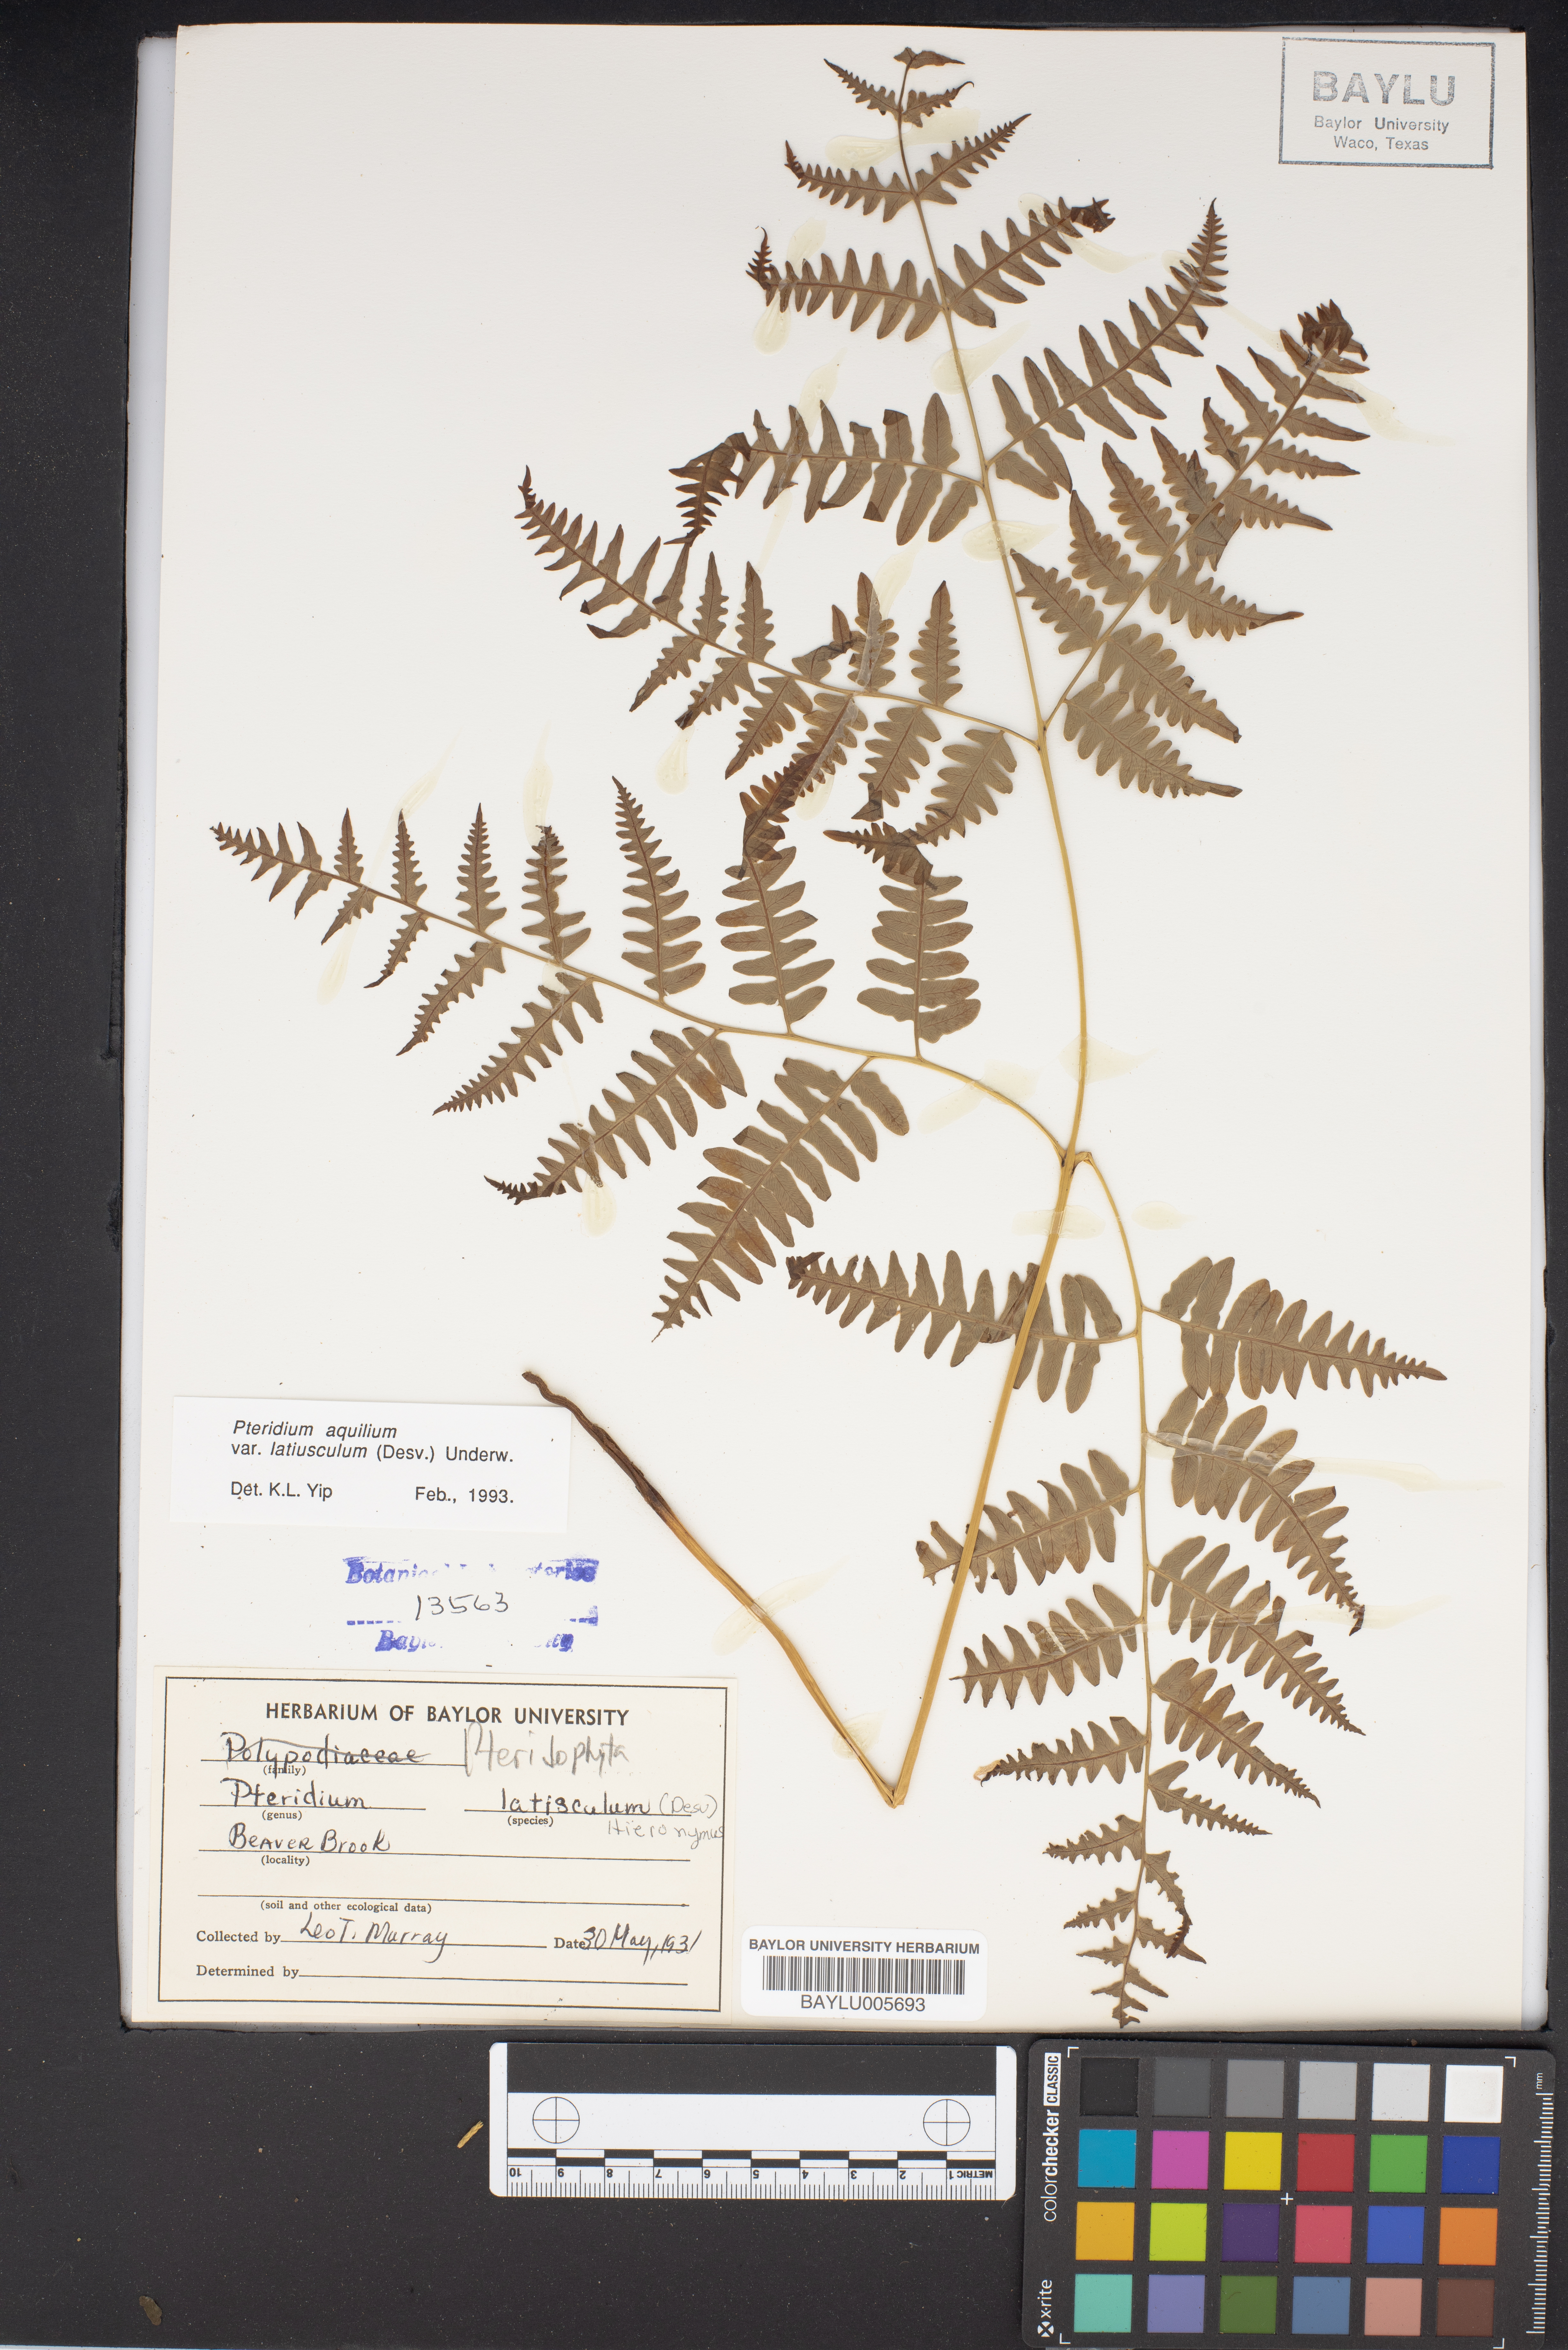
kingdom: Plantae
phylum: Tracheophyta
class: Polypodiopsida
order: Polypodiales
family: Dennstaedtiaceae
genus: Pteridium
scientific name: Pteridium aquilinum
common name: Bracken
